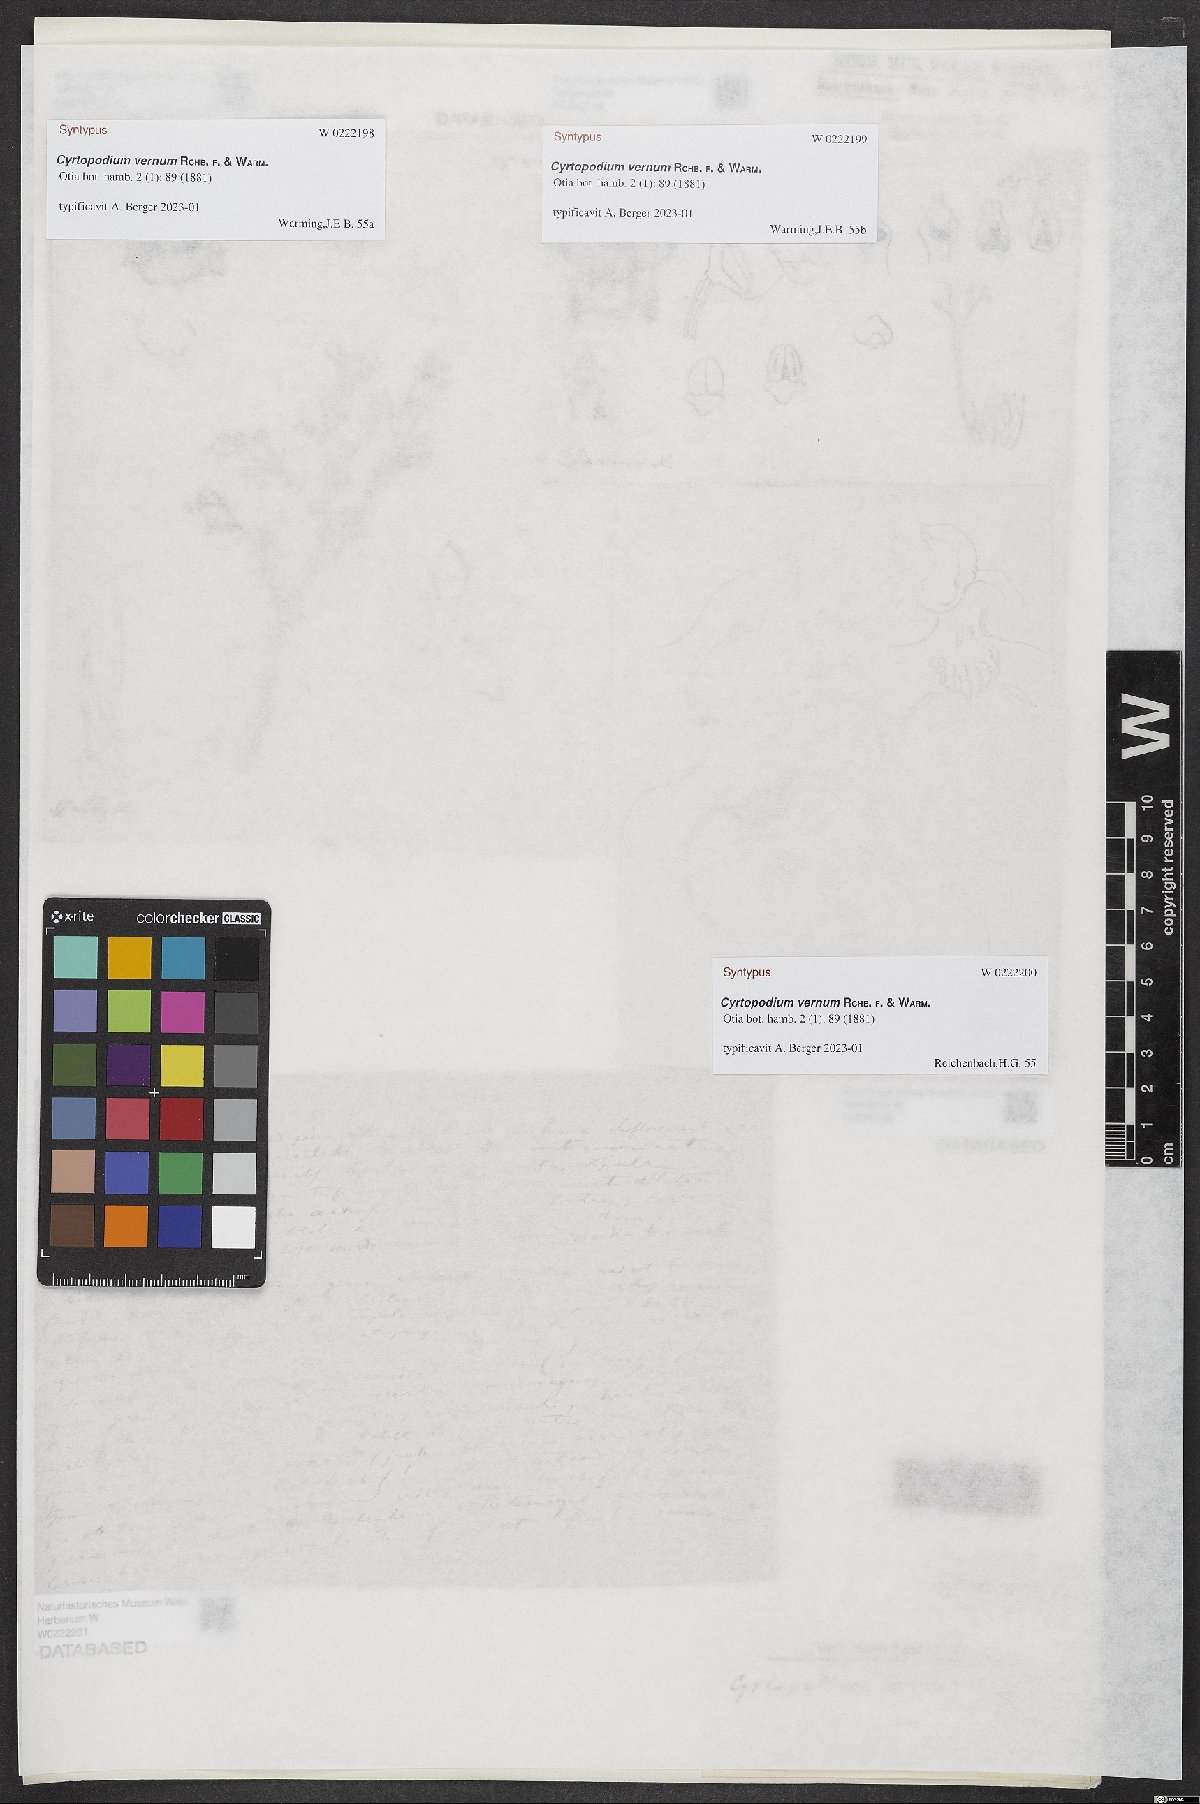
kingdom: Plantae
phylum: Tracheophyta
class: Liliopsida
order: Asparagales
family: Orchidaceae
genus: Cyrtopodium
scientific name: Cyrtopodium vernum
